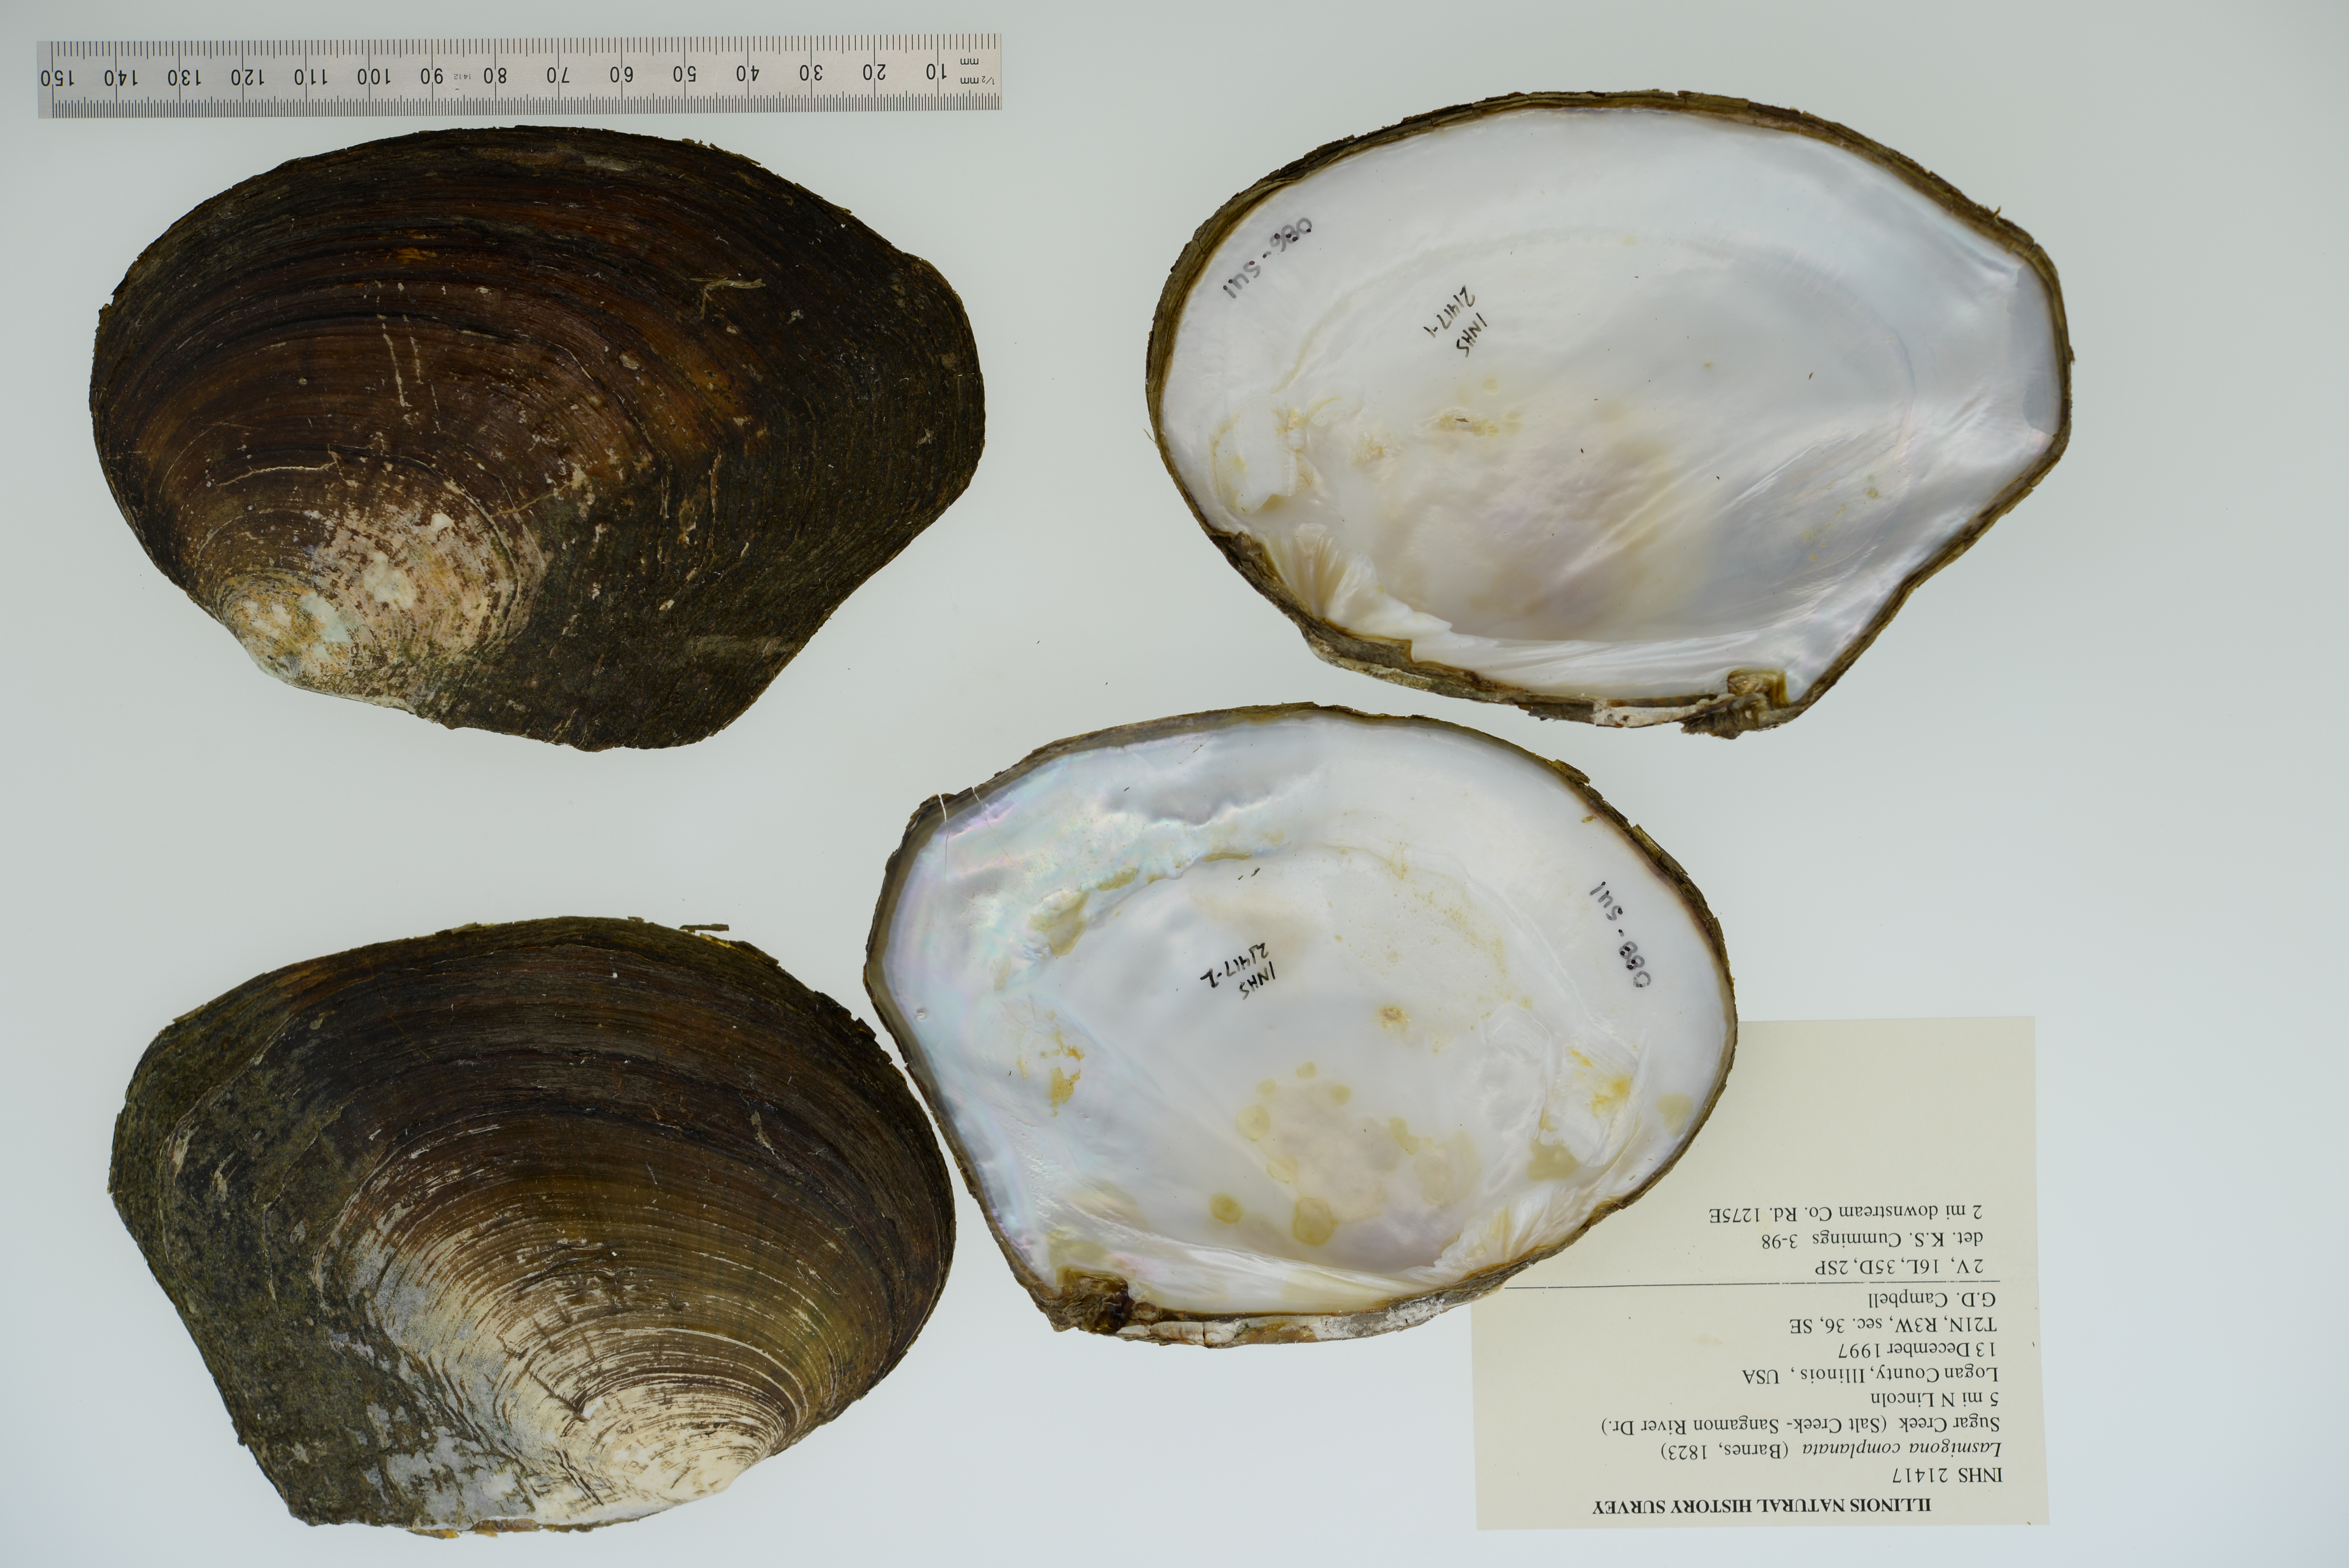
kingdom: Animalia
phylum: Mollusca
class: Bivalvia
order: Unionida
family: Unionidae
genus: Lasmigona
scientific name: Lasmigona complanata
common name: White heelsplitter
